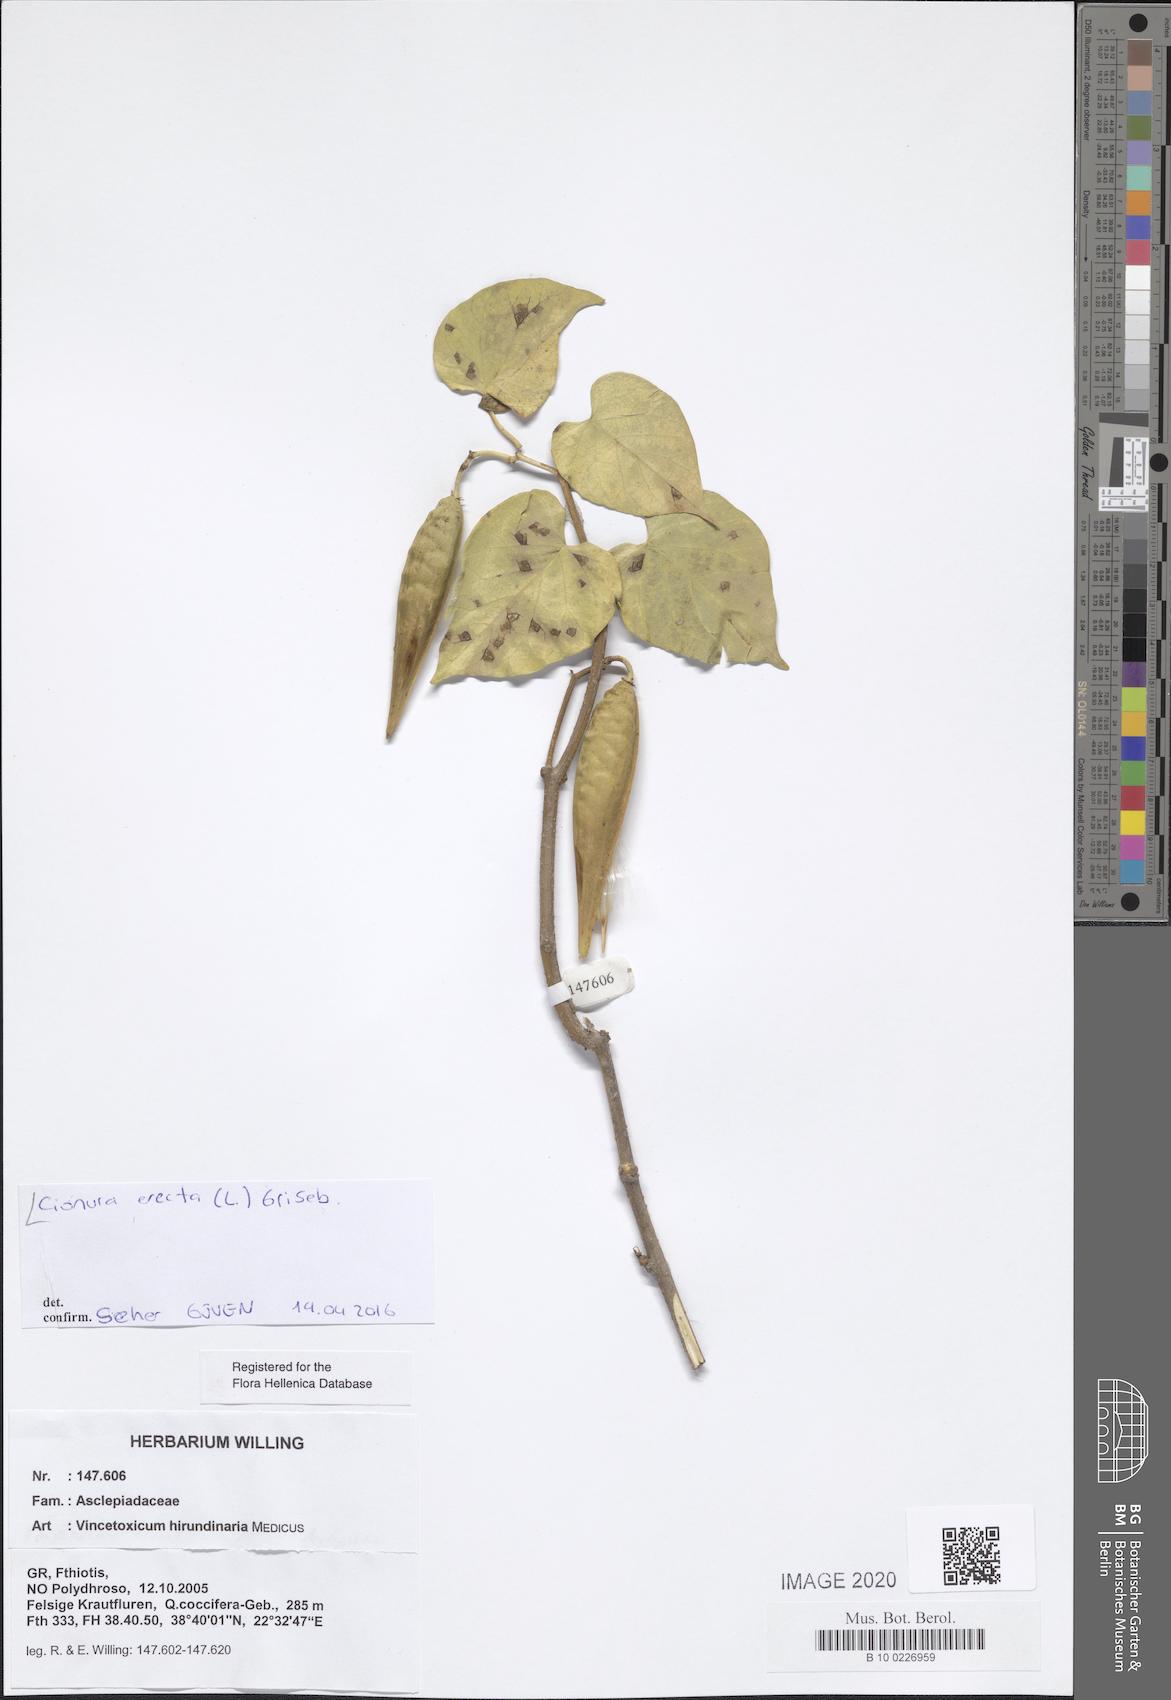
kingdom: Plantae
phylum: Tracheophyta
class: Magnoliopsida
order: Gentianales
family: Apocynaceae
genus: Cionura
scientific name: Cionura erecta
